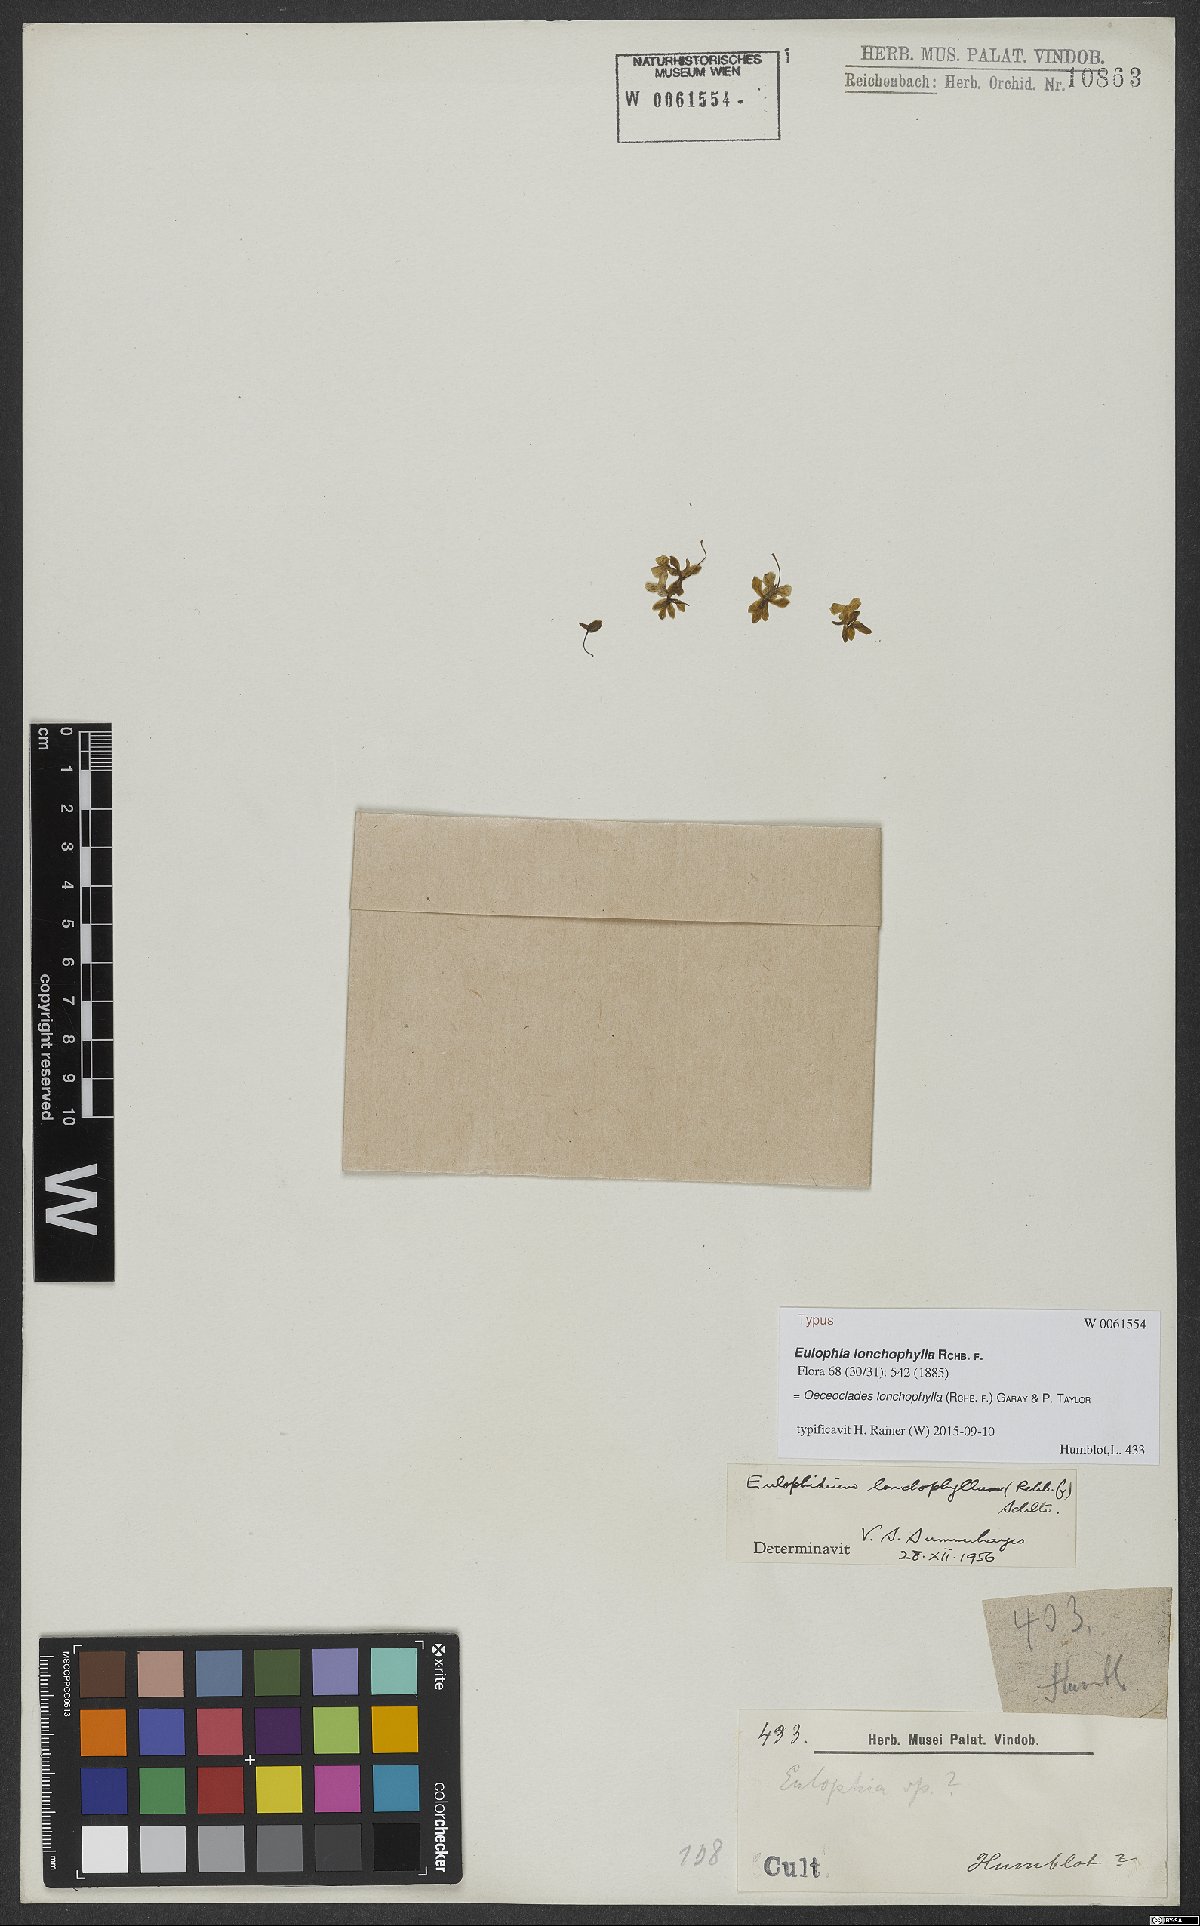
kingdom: Plantae
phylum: Tracheophyta
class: Liliopsida
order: Asparagales
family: Orchidaceae
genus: Eulophia
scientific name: Eulophia lonchophylla
